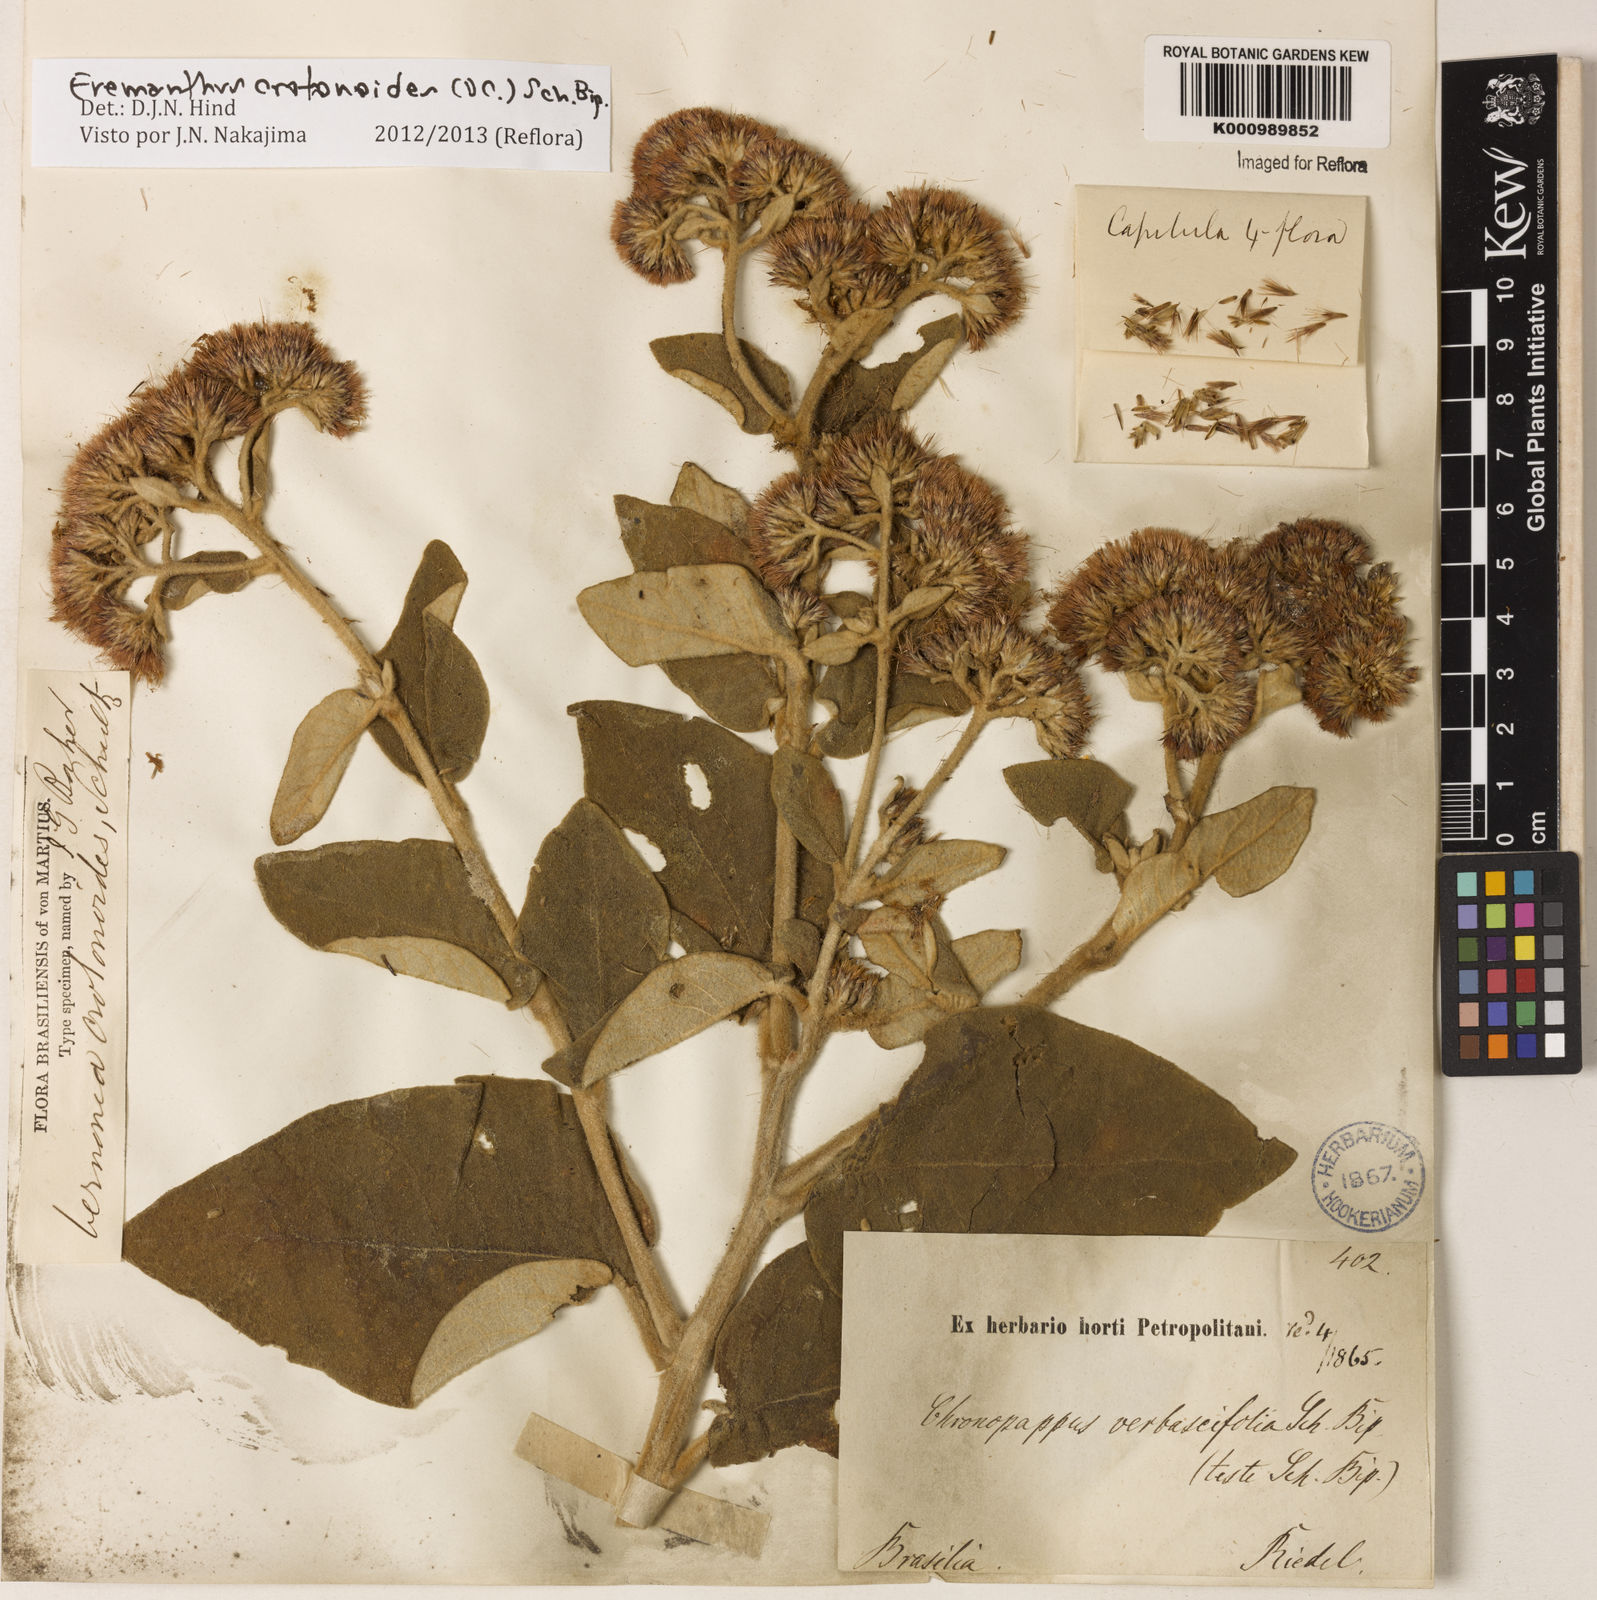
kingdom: Plantae
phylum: Tracheophyta
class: Magnoliopsida
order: Asterales
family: Asteraceae
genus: Eremanthus
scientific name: Eremanthus crotonoides
